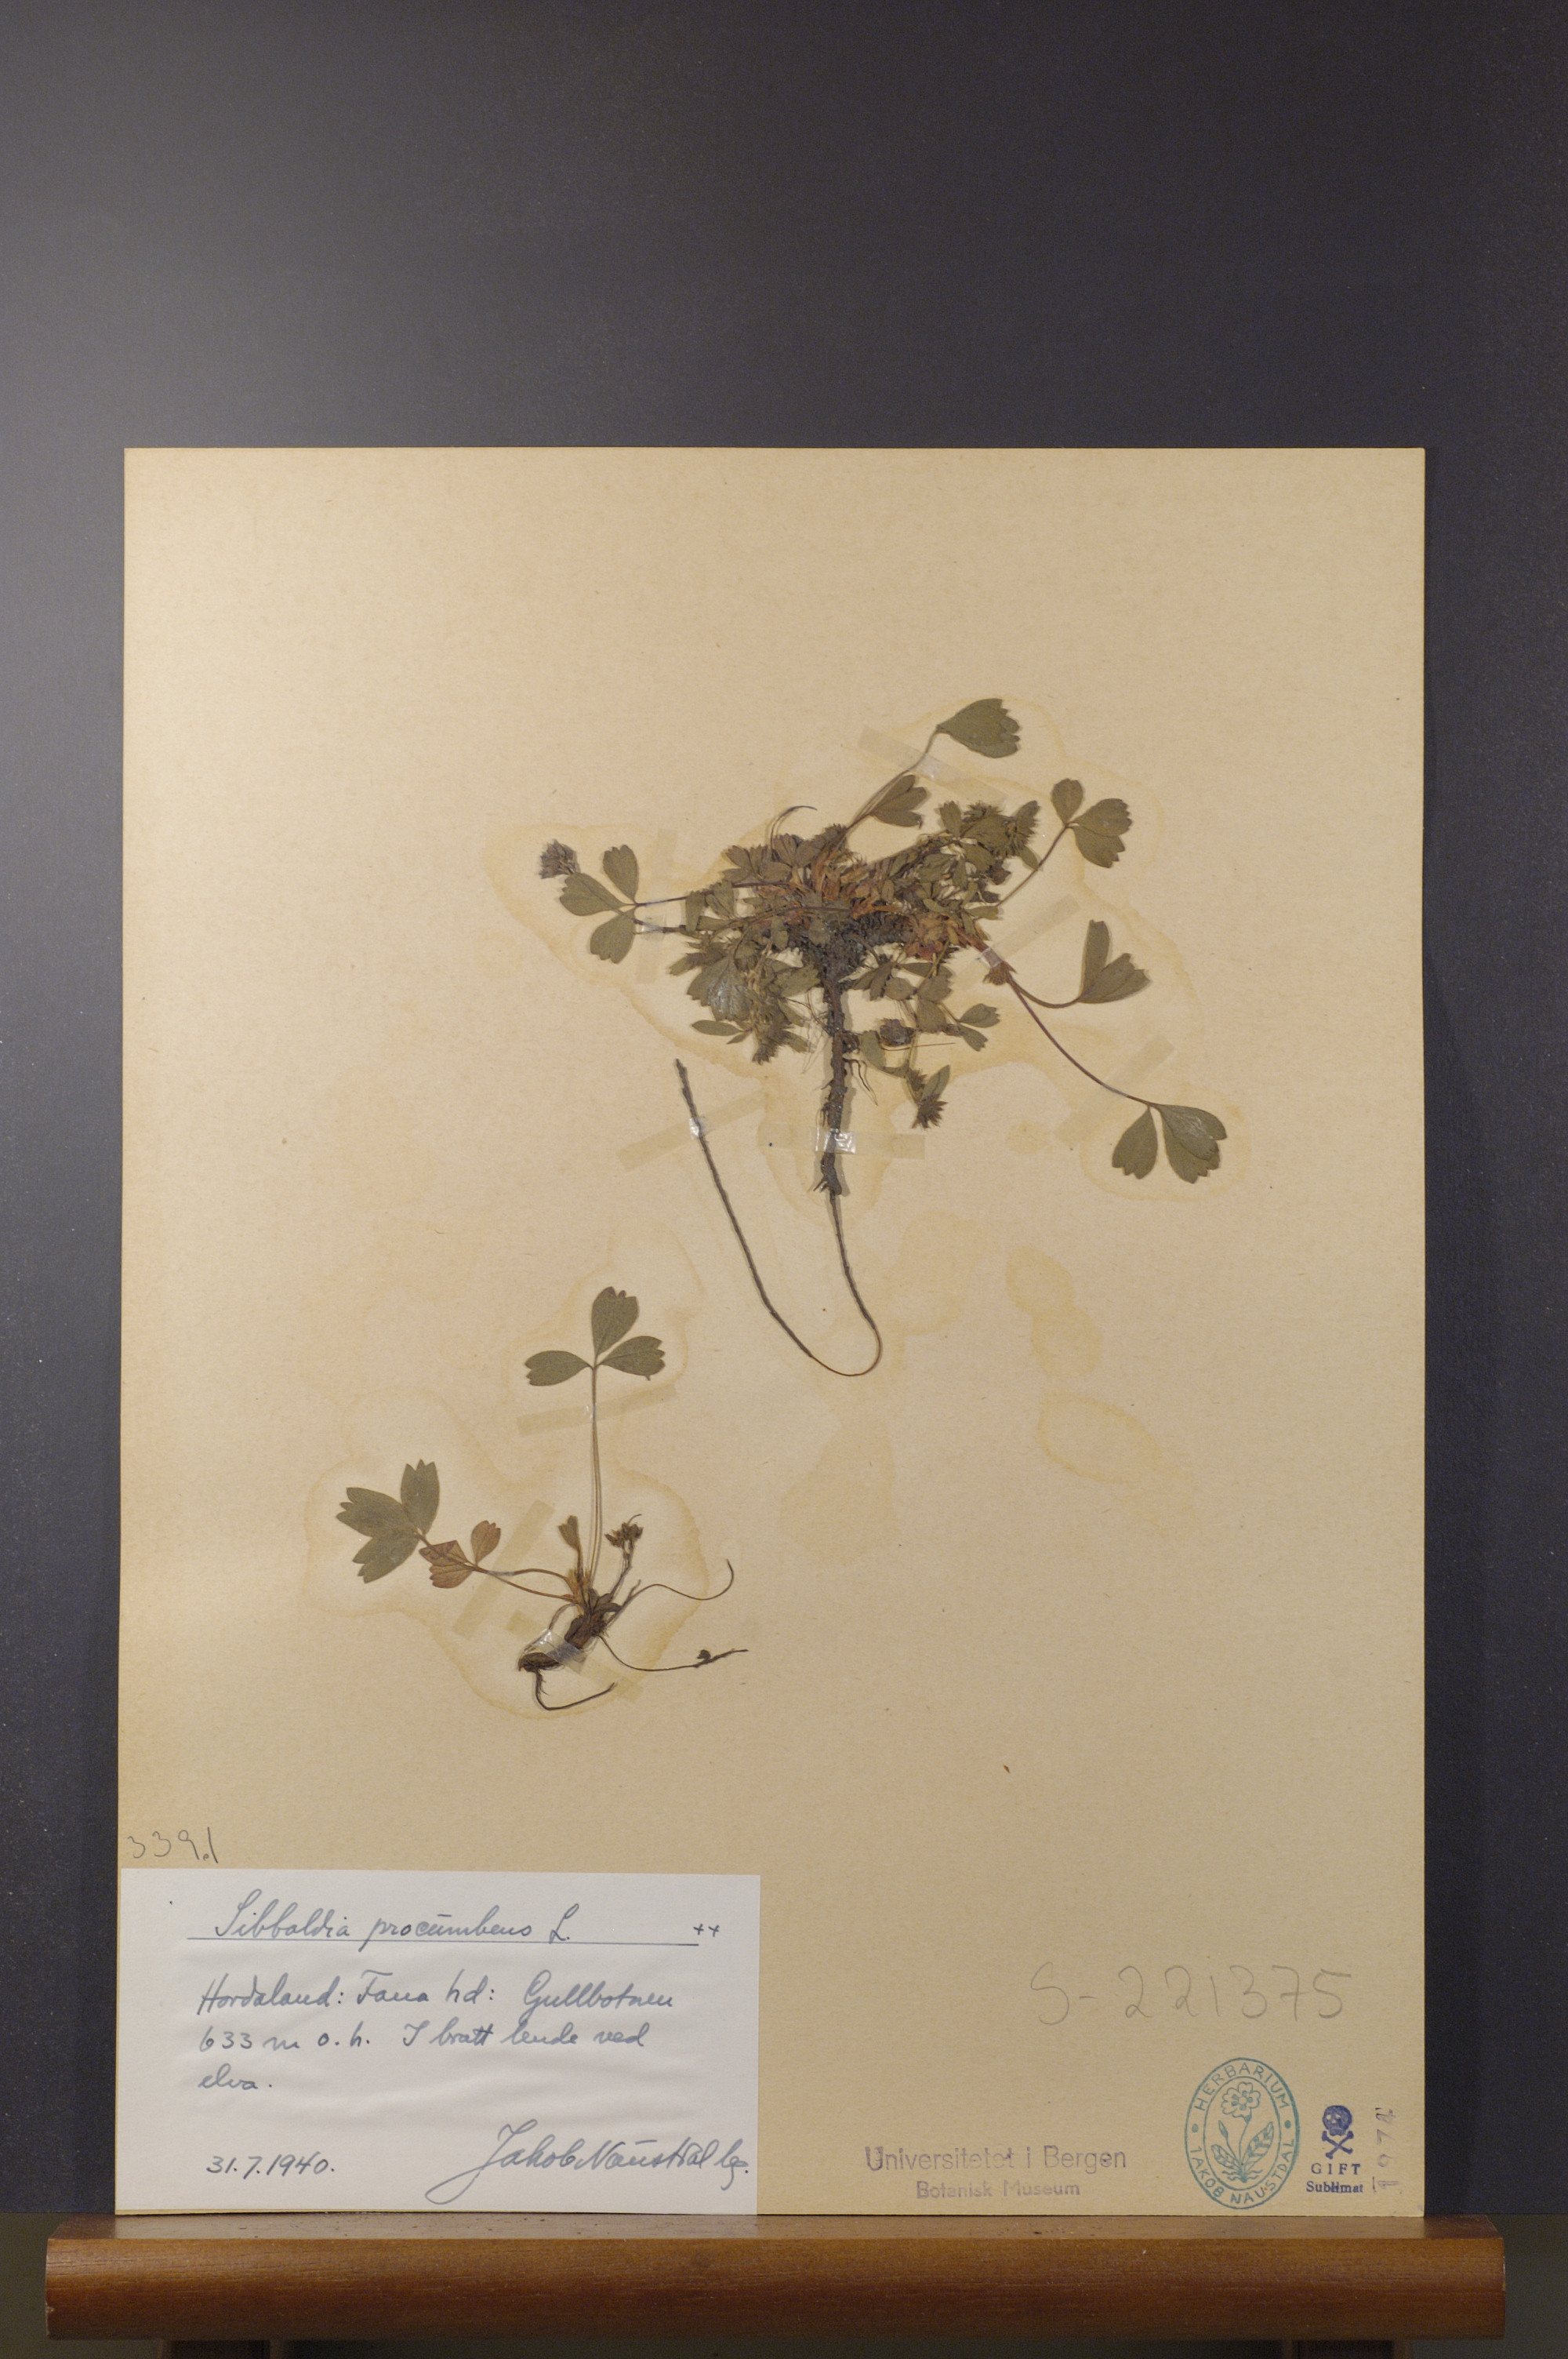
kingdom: Plantae
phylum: Tracheophyta
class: Magnoliopsida
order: Rosales
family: Rosaceae
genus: Sibbaldia
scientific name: Sibbaldia procumbens
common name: Creeping sibbaldia
